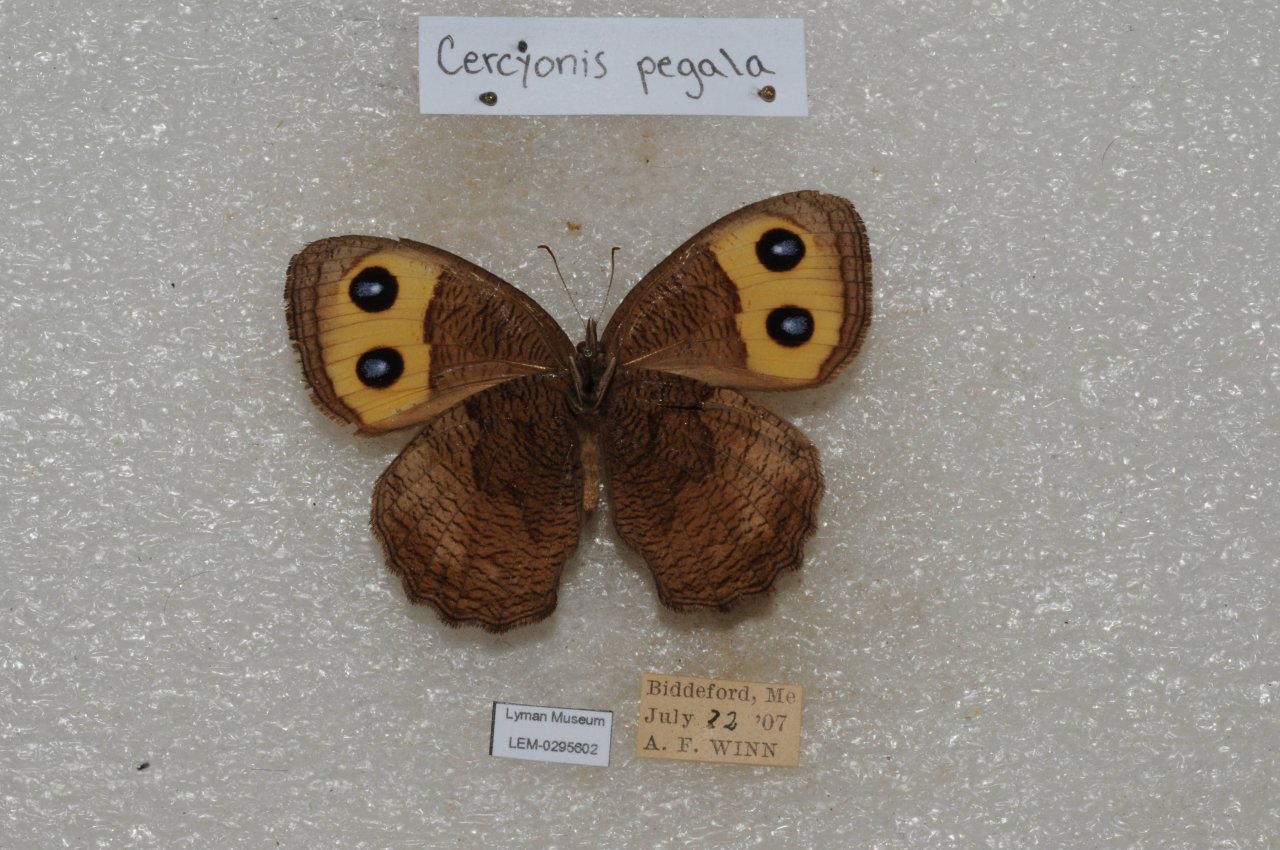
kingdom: Animalia
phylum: Arthropoda
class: Insecta
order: Lepidoptera
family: Nymphalidae
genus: Cercyonis
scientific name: Cercyonis pegala
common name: Common Wood-Nymph
